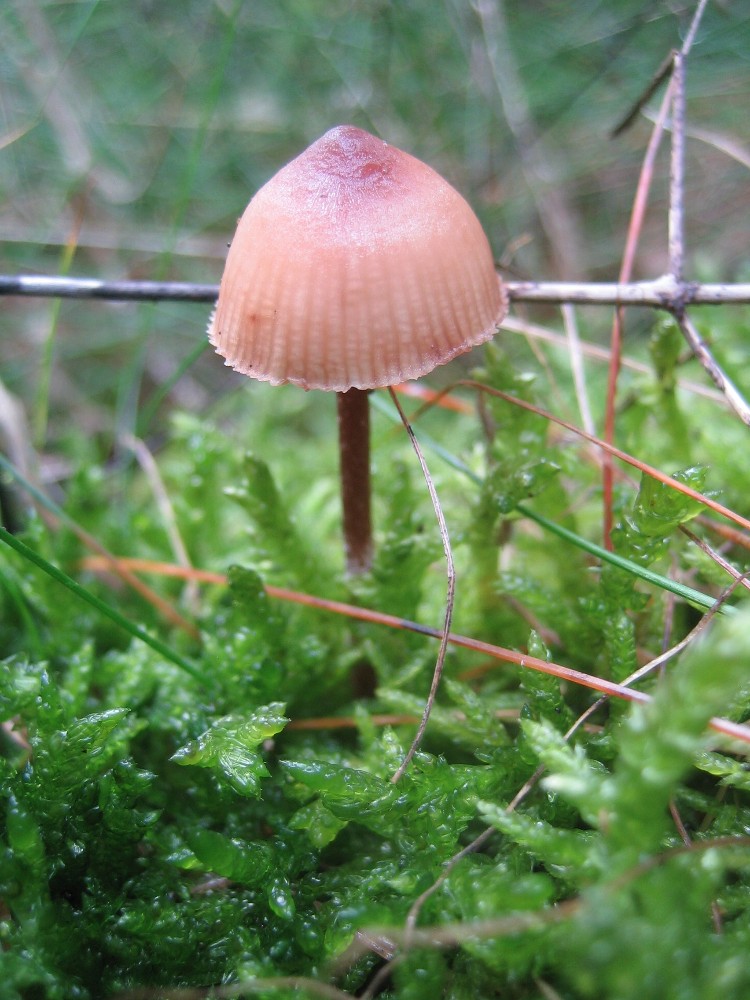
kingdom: Fungi
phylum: Basidiomycota
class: Agaricomycetes
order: Agaricales
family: Mycenaceae
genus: Mycena
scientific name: Mycena haematopus
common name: blødende huesvamp
